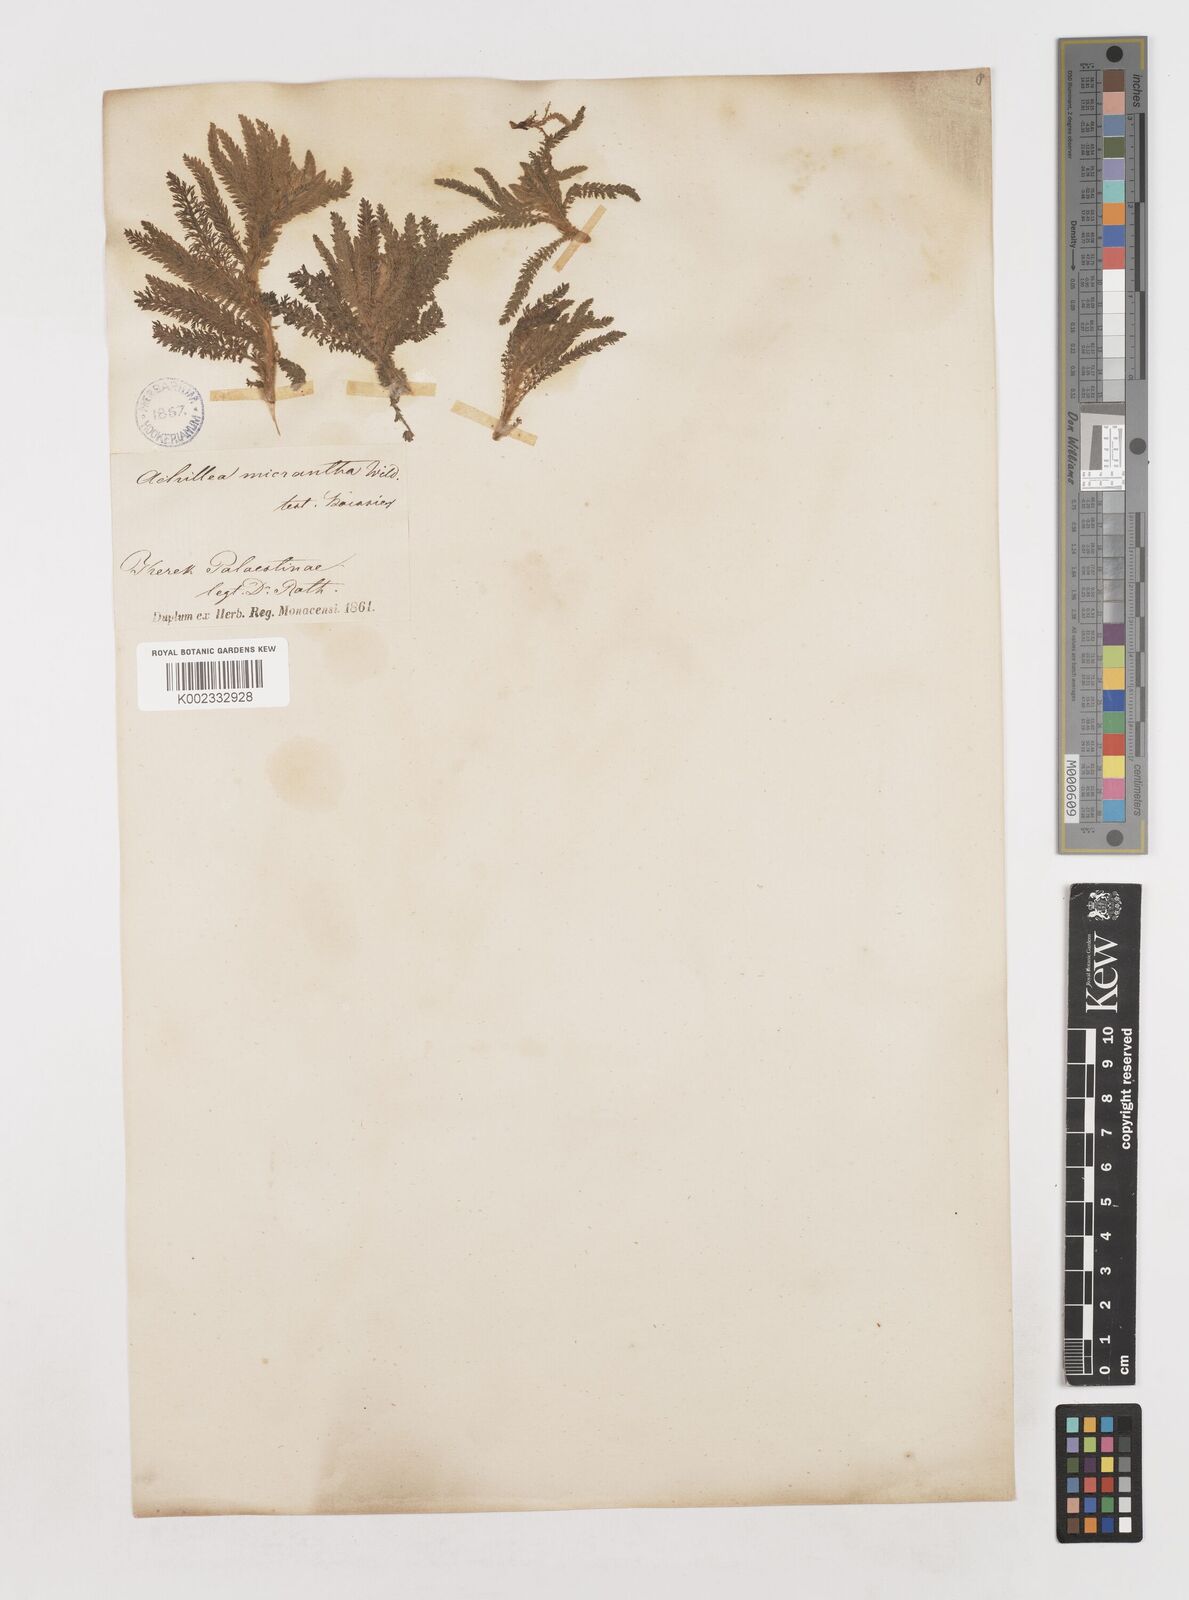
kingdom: Plantae
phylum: Tracheophyta
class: Magnoliopsida
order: Asterales
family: Asteraceae
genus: Achillea
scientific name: Achillea arabica
